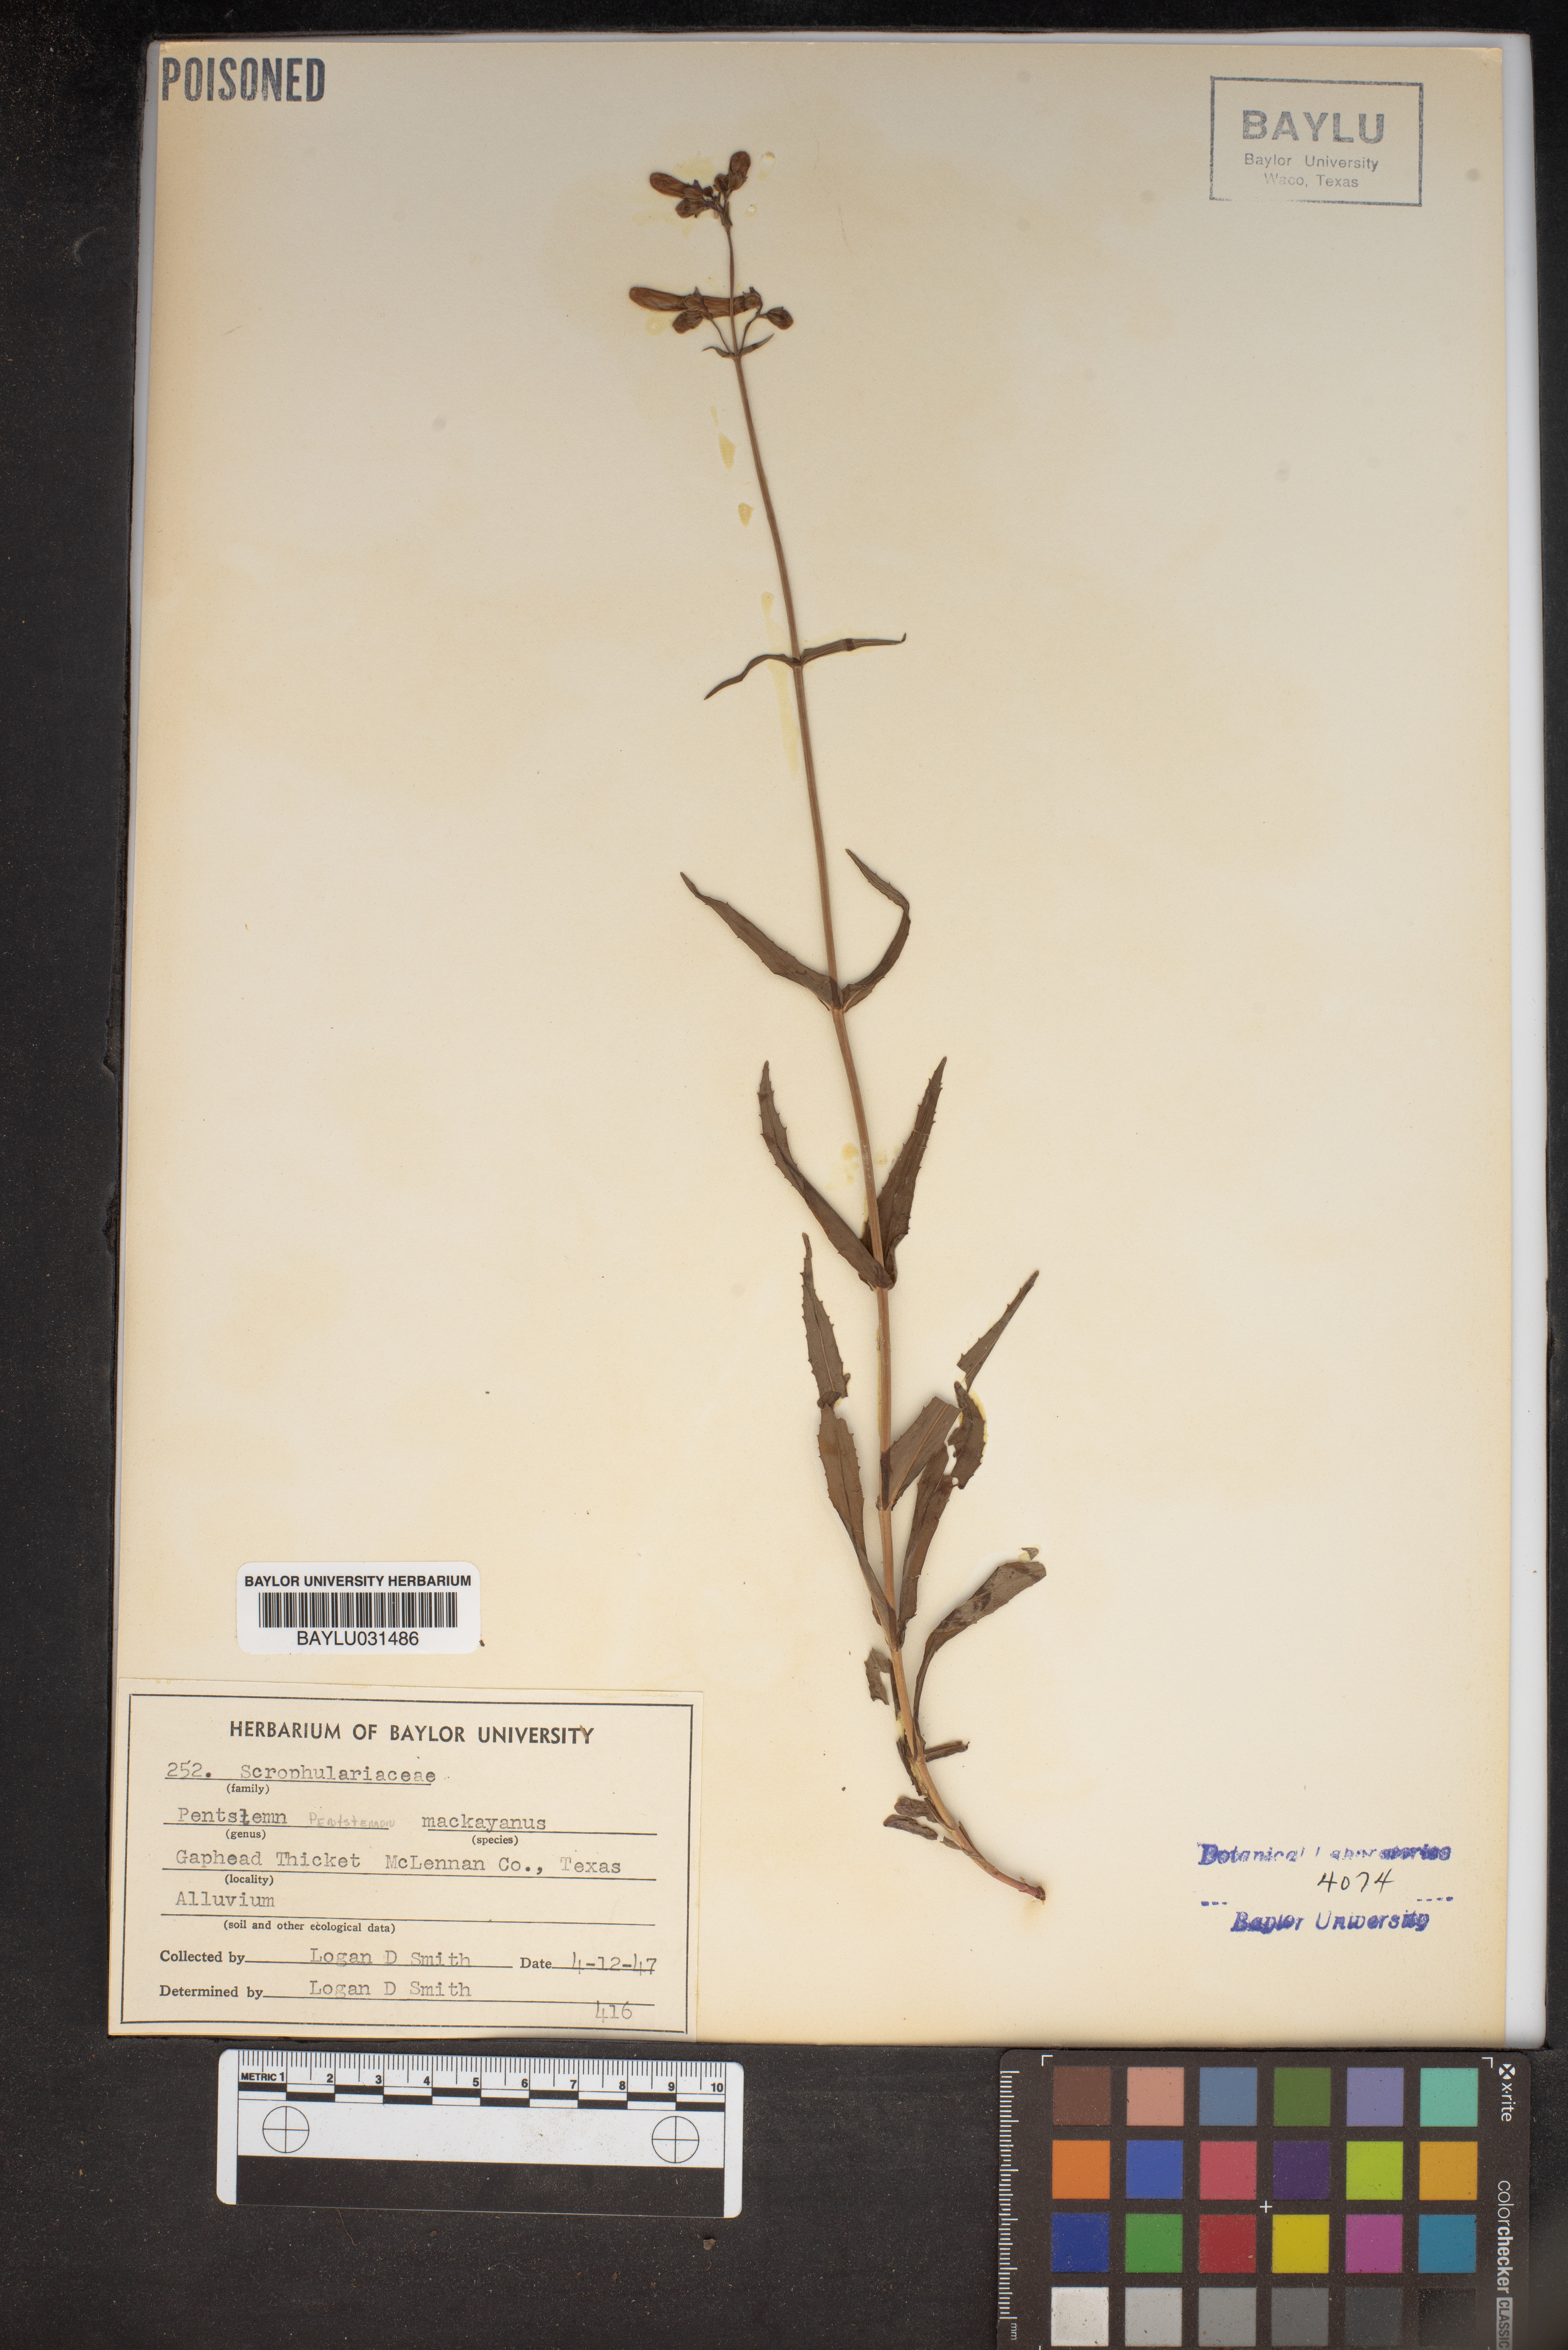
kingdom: Plantae
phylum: Tracheophyta
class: Magnoliopsida
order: Lamiales
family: Plantaginaceae
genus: Penstemon
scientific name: Penstemon hirsutus
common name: Hairy beardtongue
